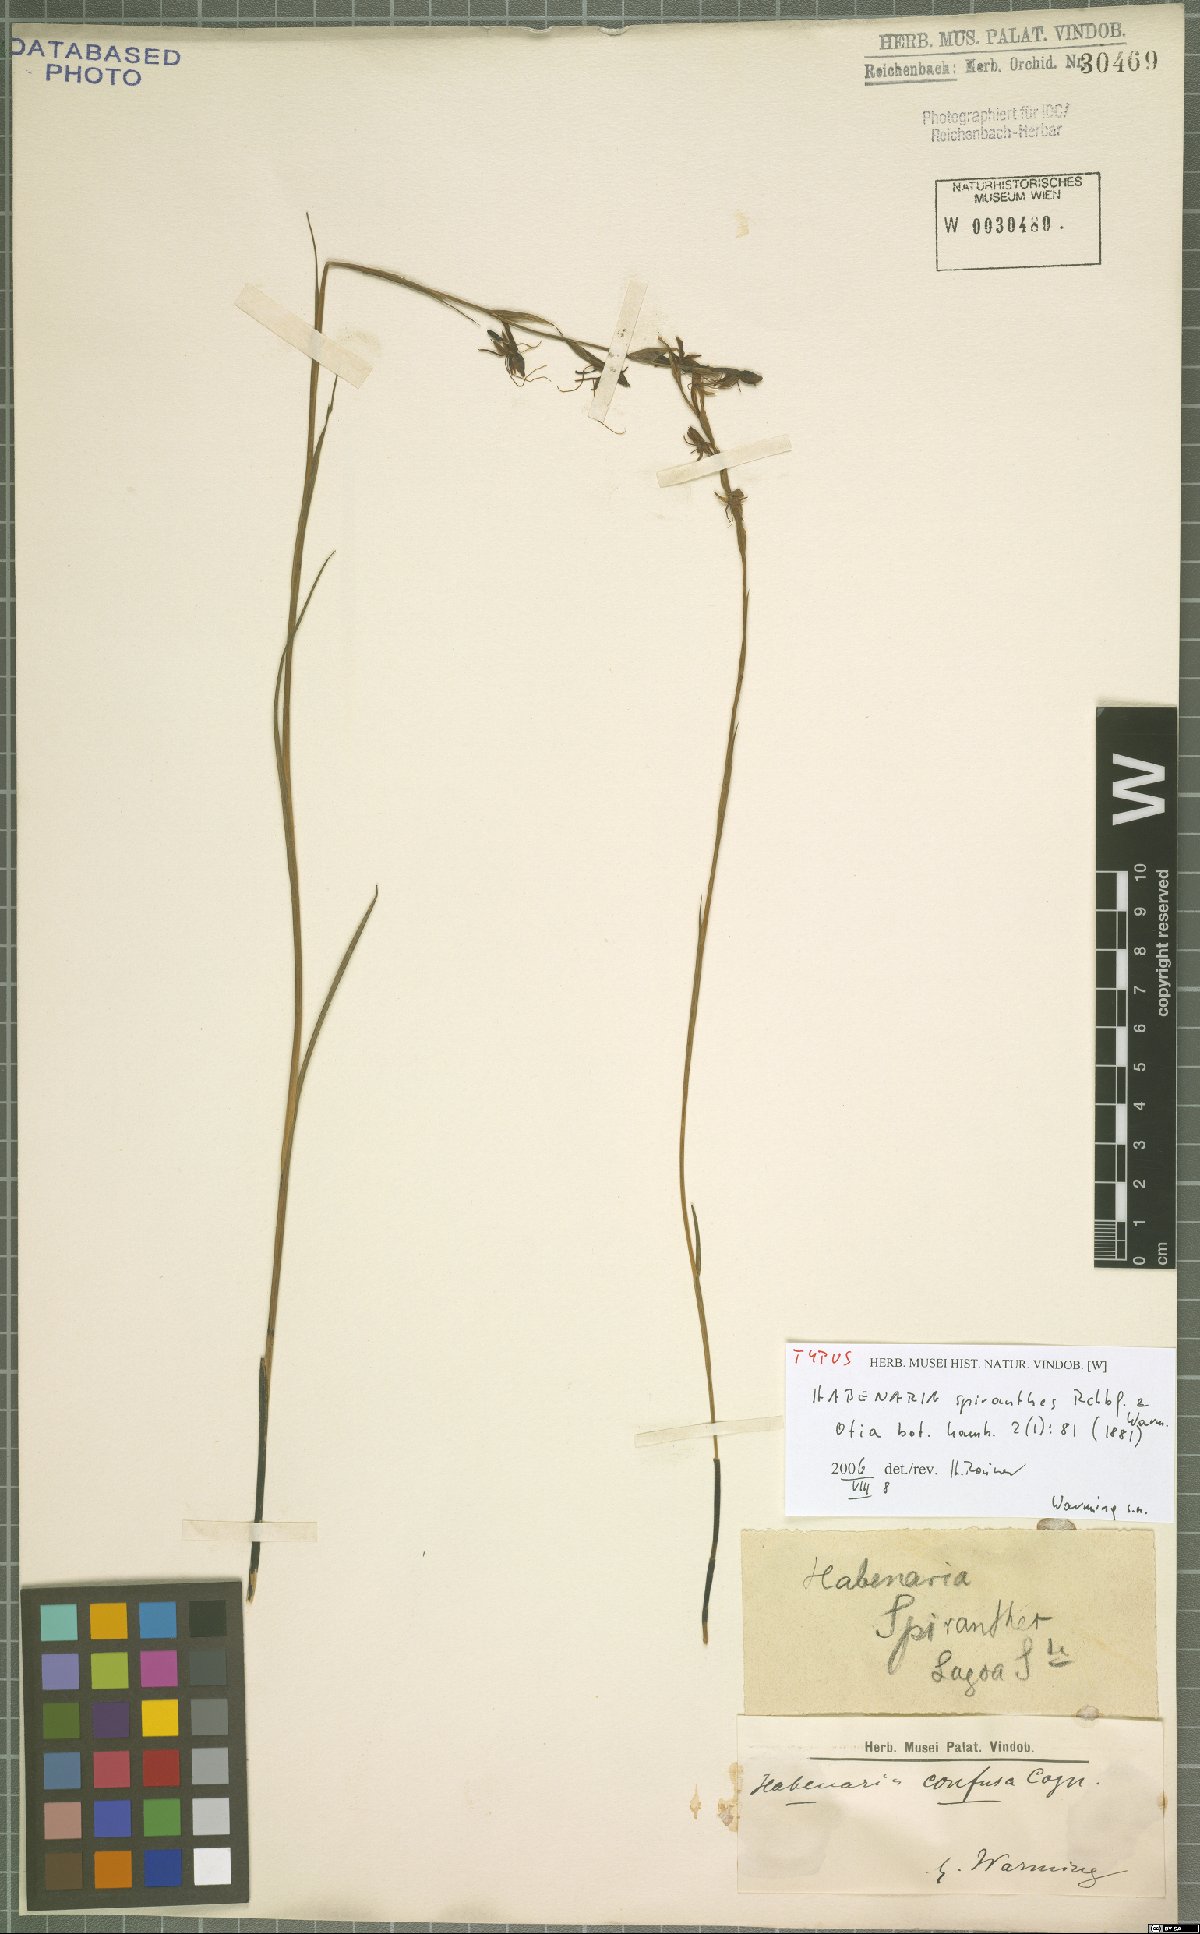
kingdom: Plantae
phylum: Tracheophyta
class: Liliopsida
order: Asparagales
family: Orchidaceae
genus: Habenaria
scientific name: Habenaria
